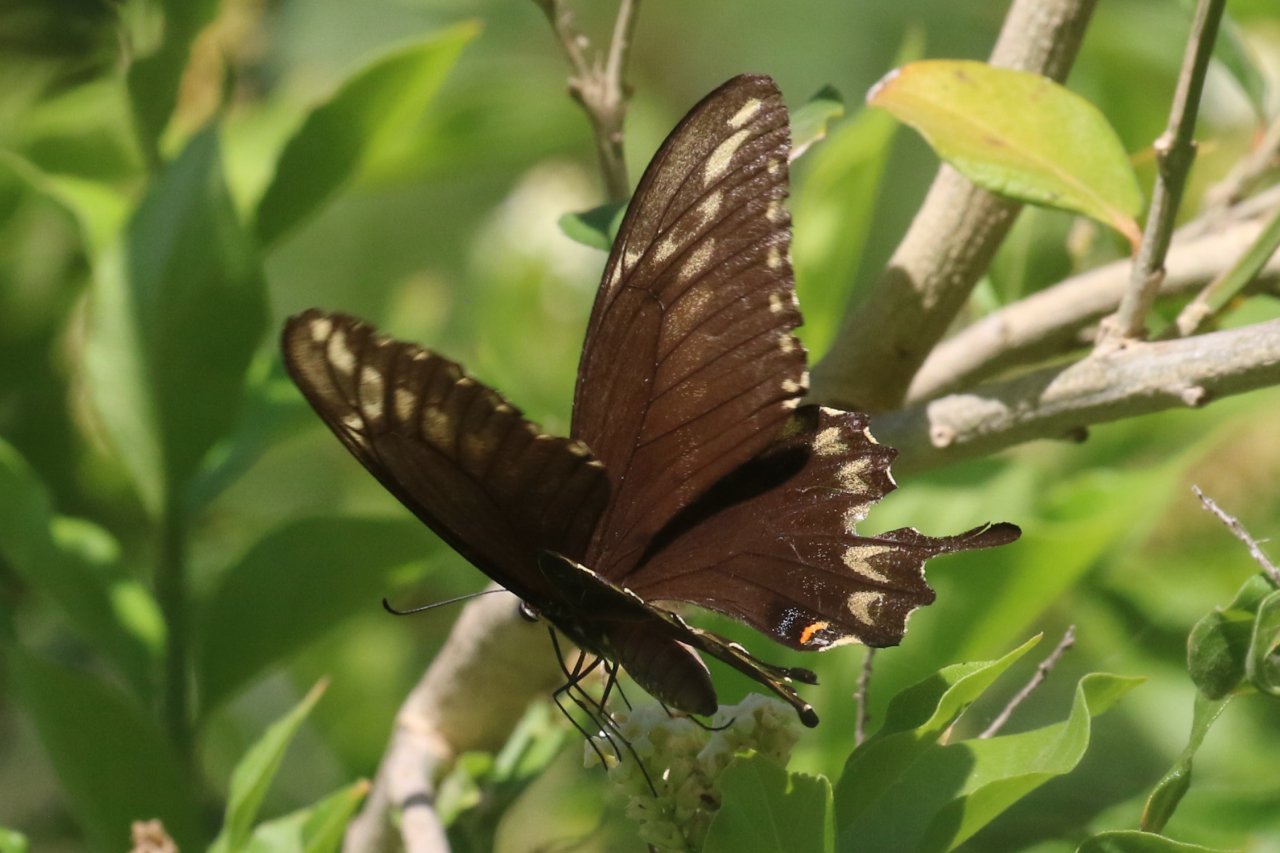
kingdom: Animalia
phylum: Arthropoda
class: Insecta
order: Lepidoptera
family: Papilionidae
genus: Papilio
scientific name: Papilio ornythion
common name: Ornythion Swallowtail
